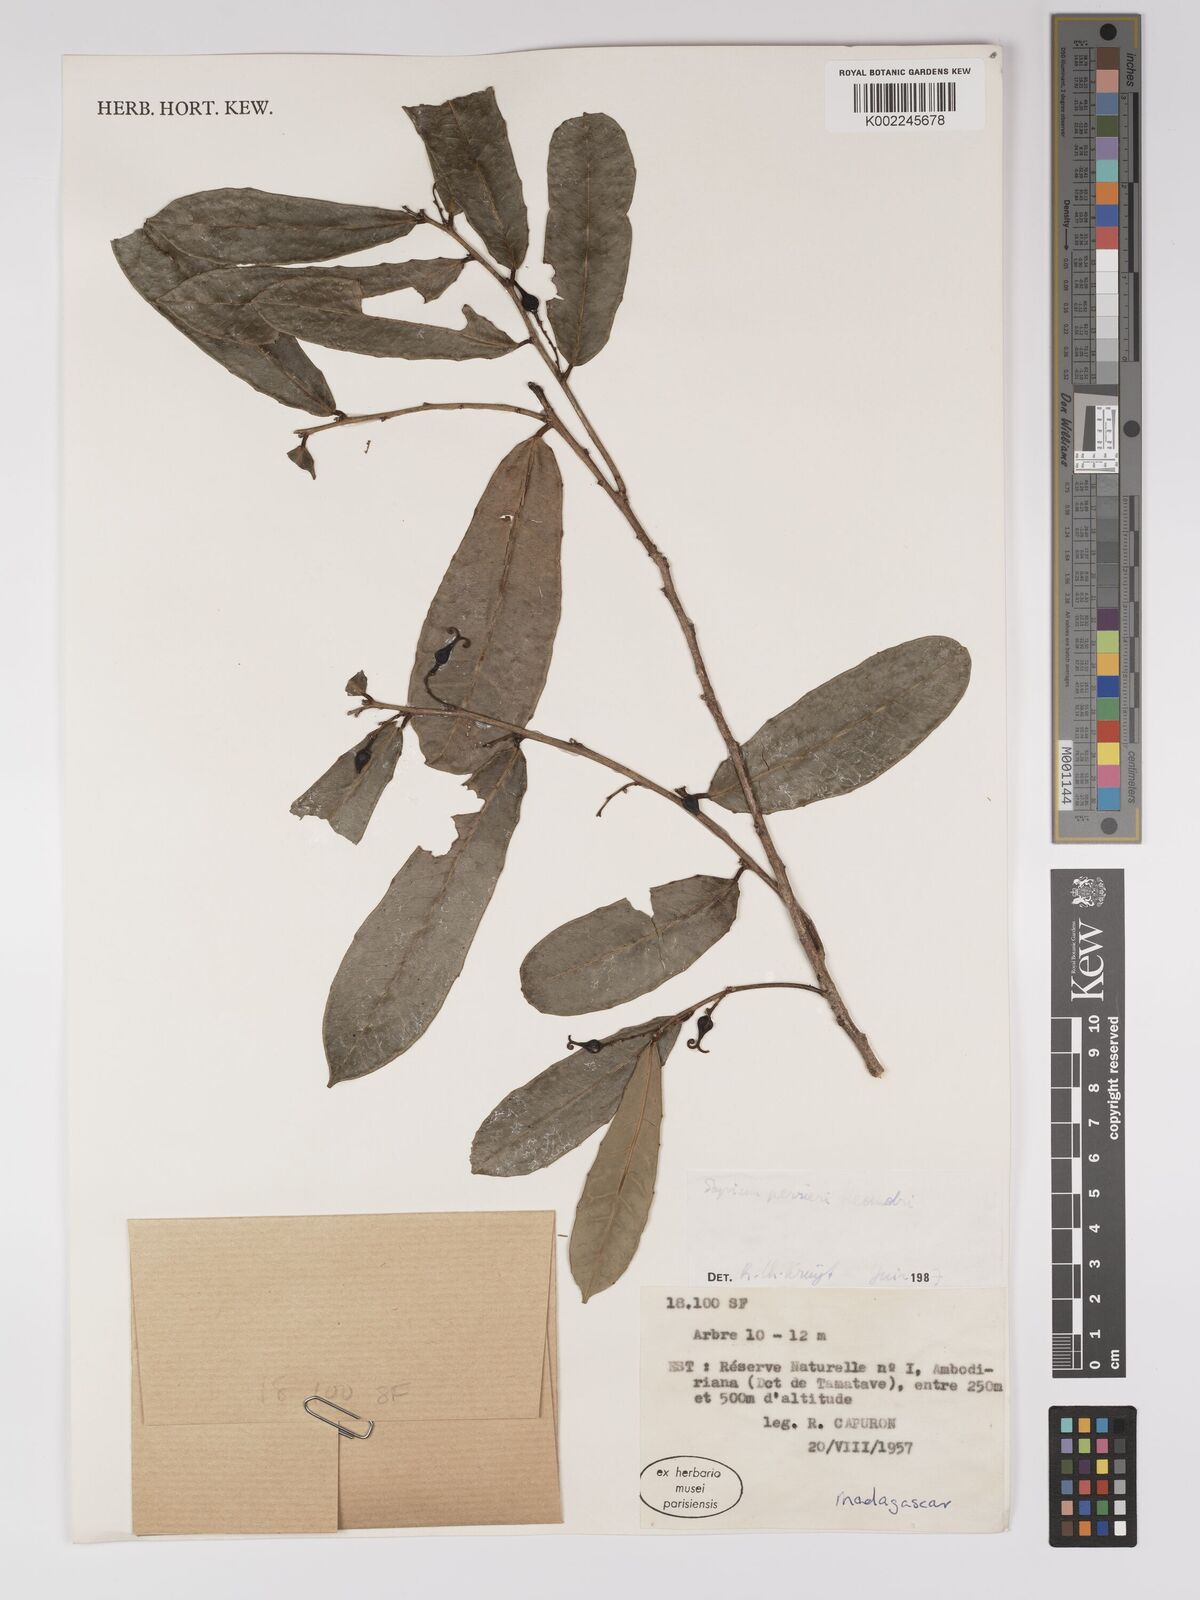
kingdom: Plantae
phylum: Tracheophyta
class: Magnoliopsida
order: Malpighiales
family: Euphorbiaceae
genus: Anomostachys
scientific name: Anomostachys lastellei
